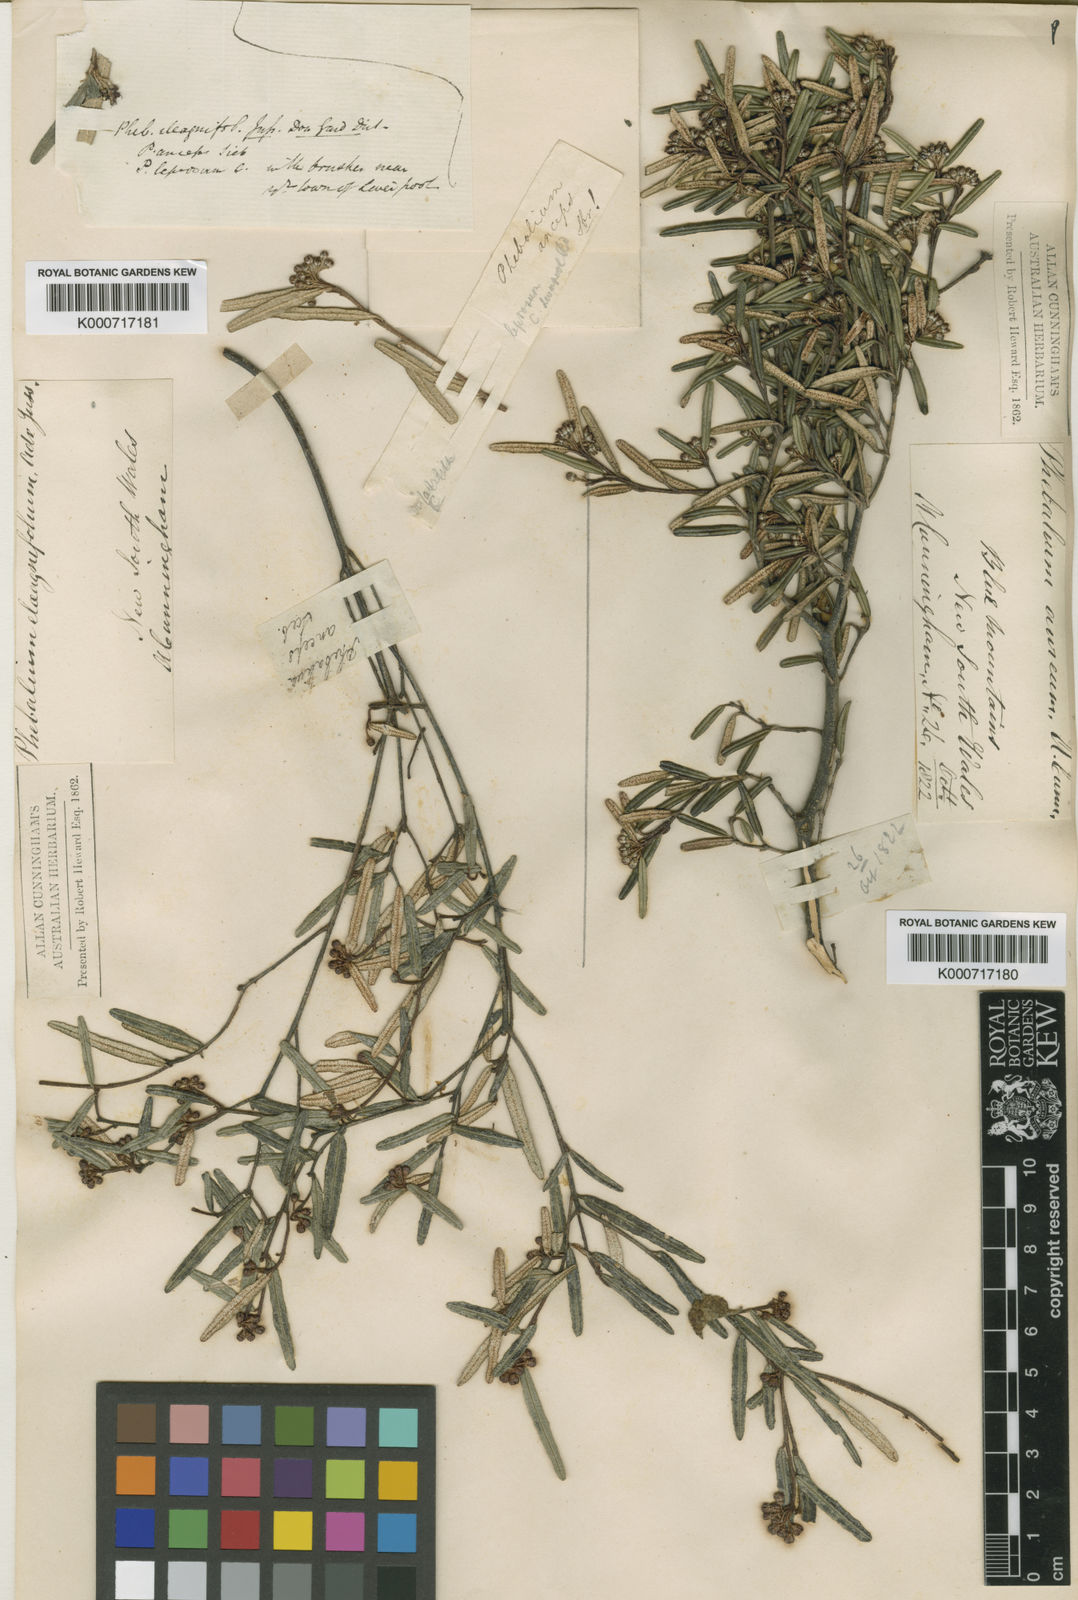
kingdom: Plantae
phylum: Tracheophyta
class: Magnoliopsida
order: Sapindales
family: Rutaceae
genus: Phebalium
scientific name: Phebalium squamulosum
